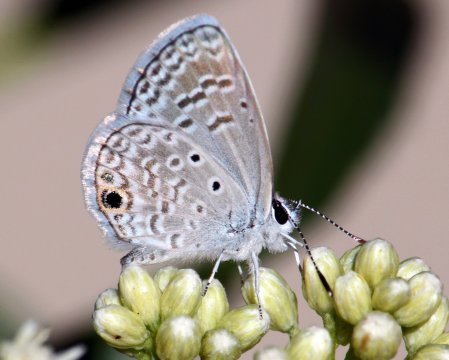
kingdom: Animalia
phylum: Arthropoda
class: Insecta
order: Lepidoptera
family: Lycaenidae
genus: Hemiargus
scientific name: Hemiargus ceraunus
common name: Ceraunus Blue
